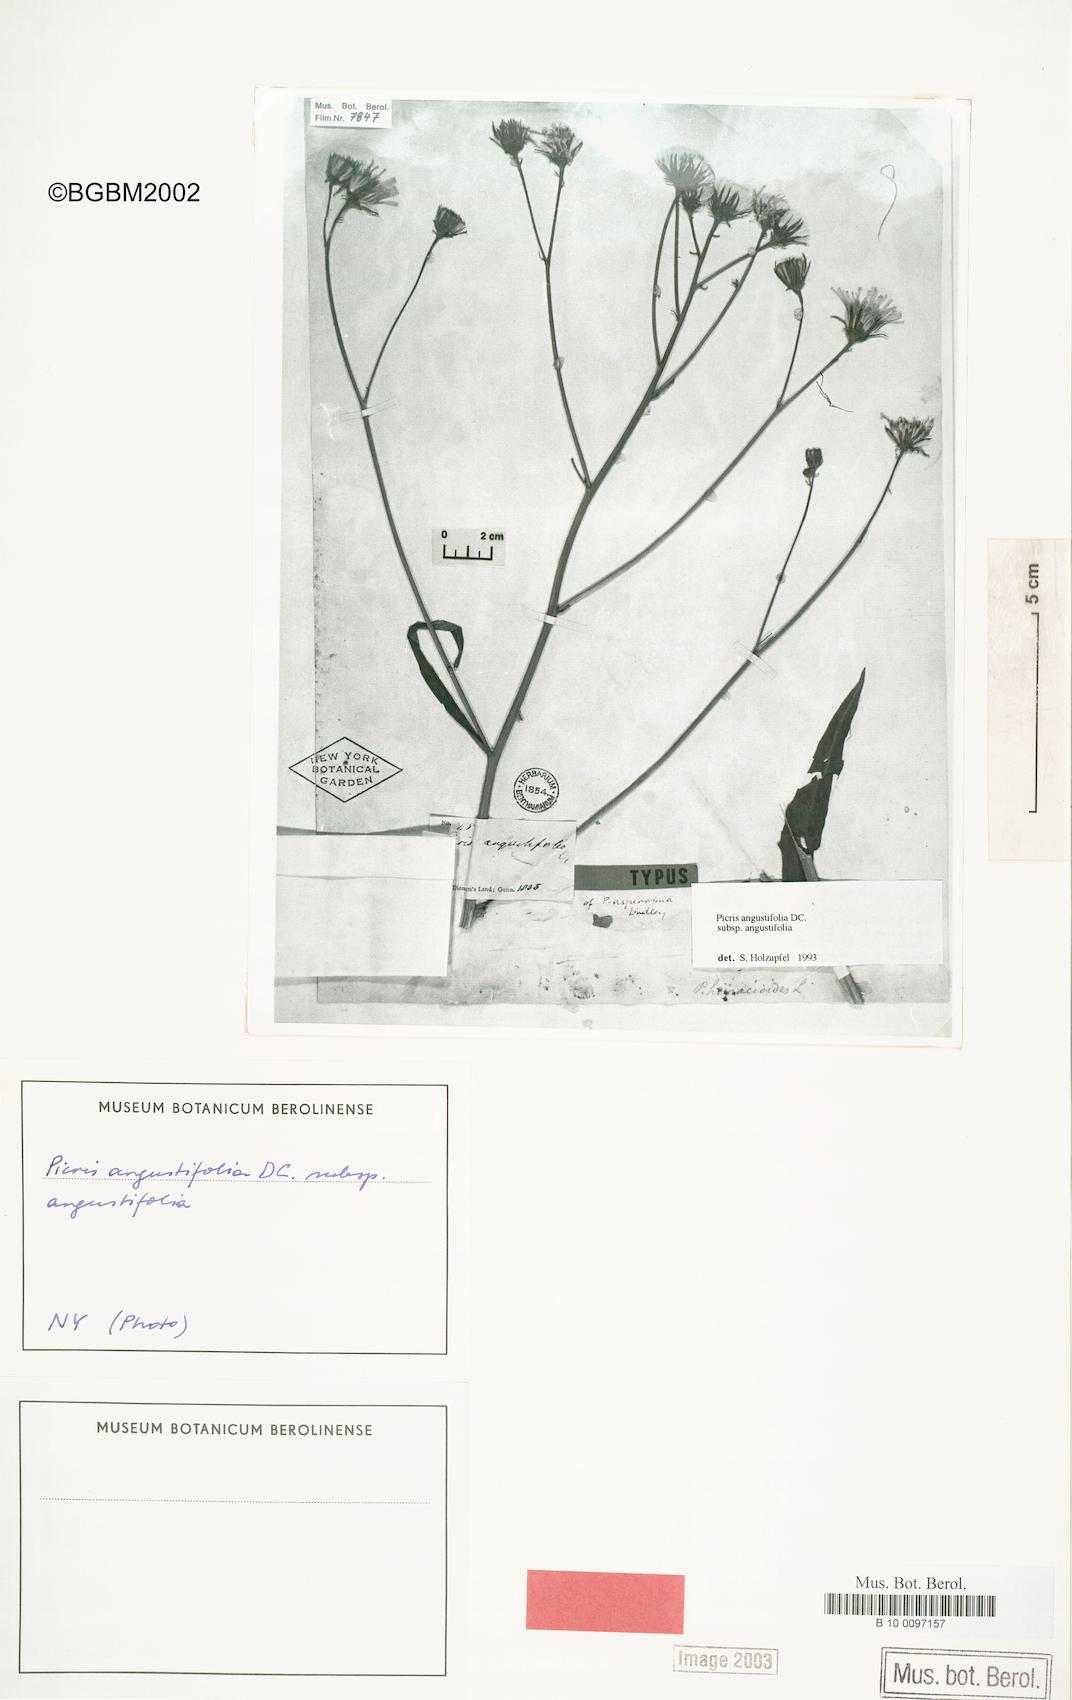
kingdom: Plantae
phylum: Tracheophyta
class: Magnoliopsida
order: Asterales
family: Asteraceae
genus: Picris
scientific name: Picris angustifolia
